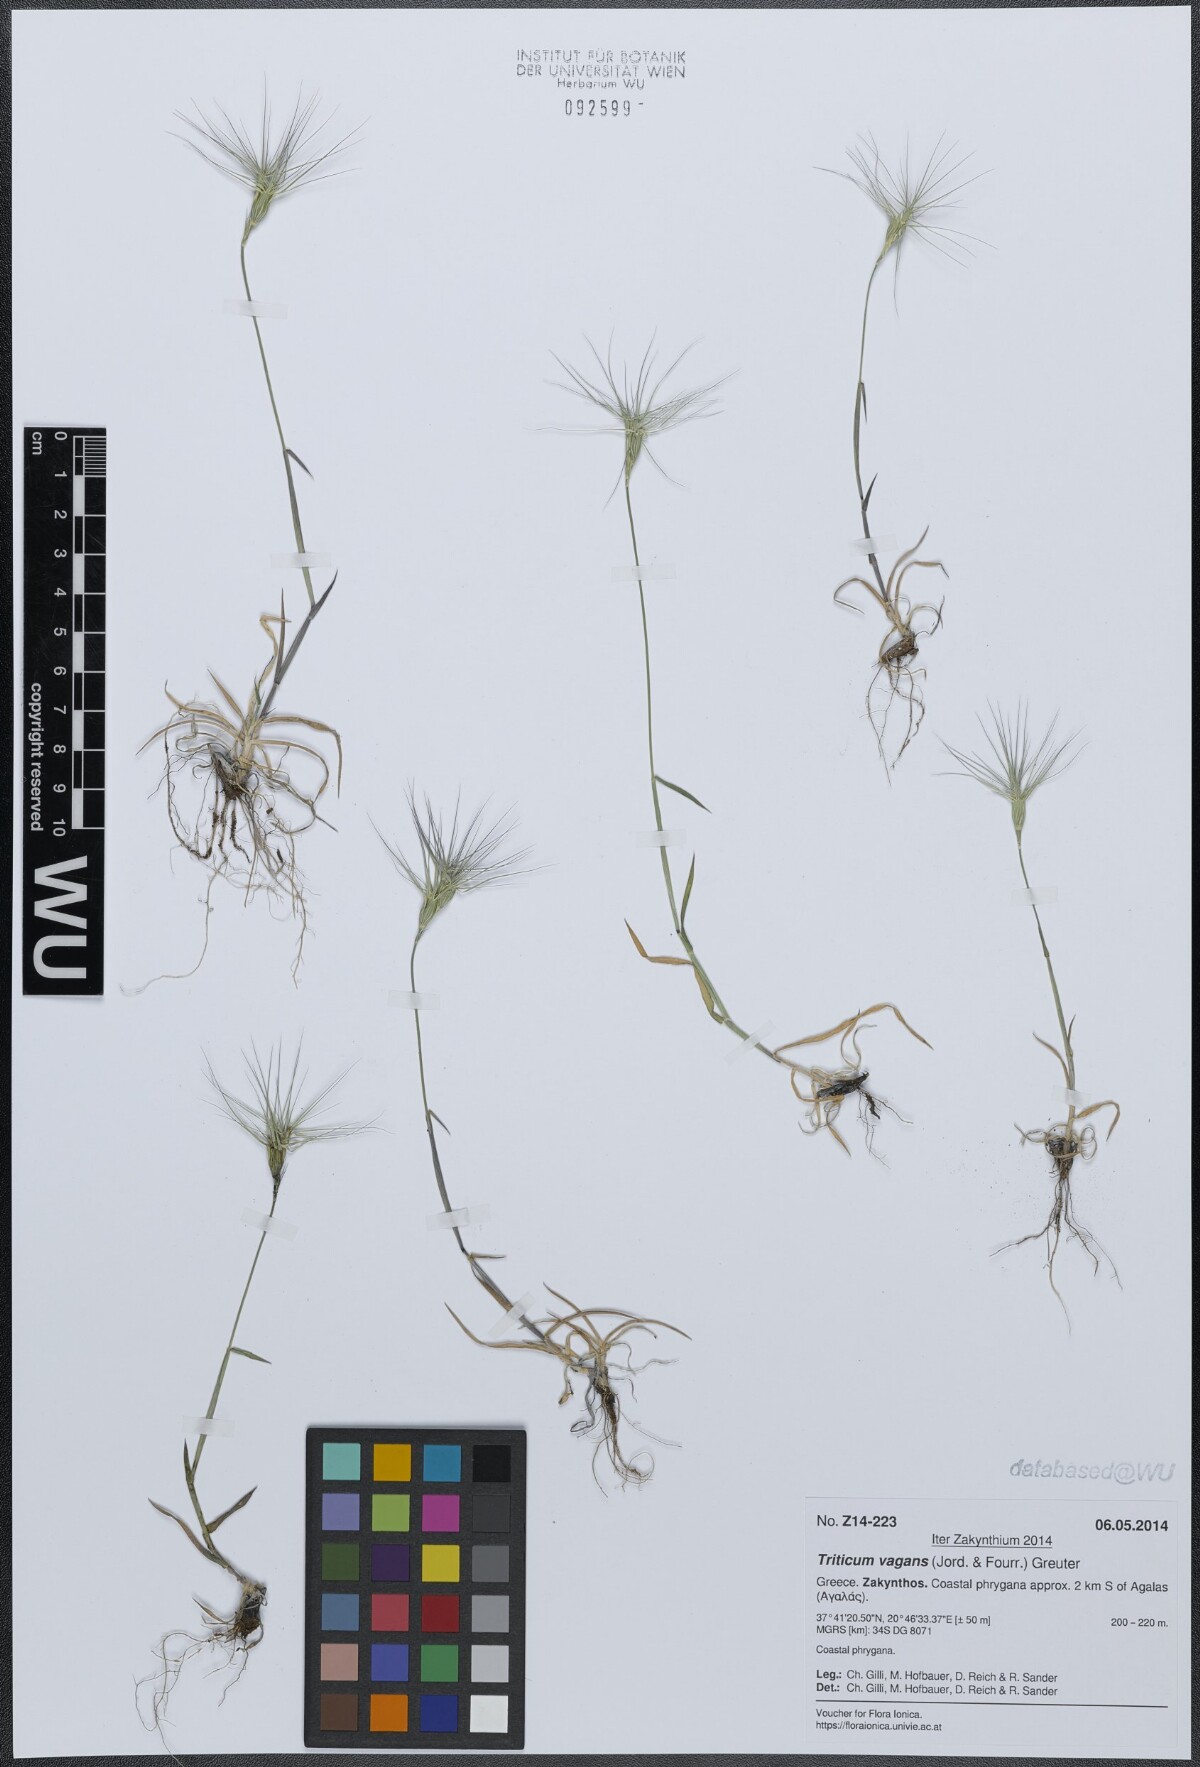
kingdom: Plantae
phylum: Tracheophyta
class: Liliopsida
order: Poales
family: Poaceae
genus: Aegilops
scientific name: Aegilops geniculata
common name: Ovate goat grass
